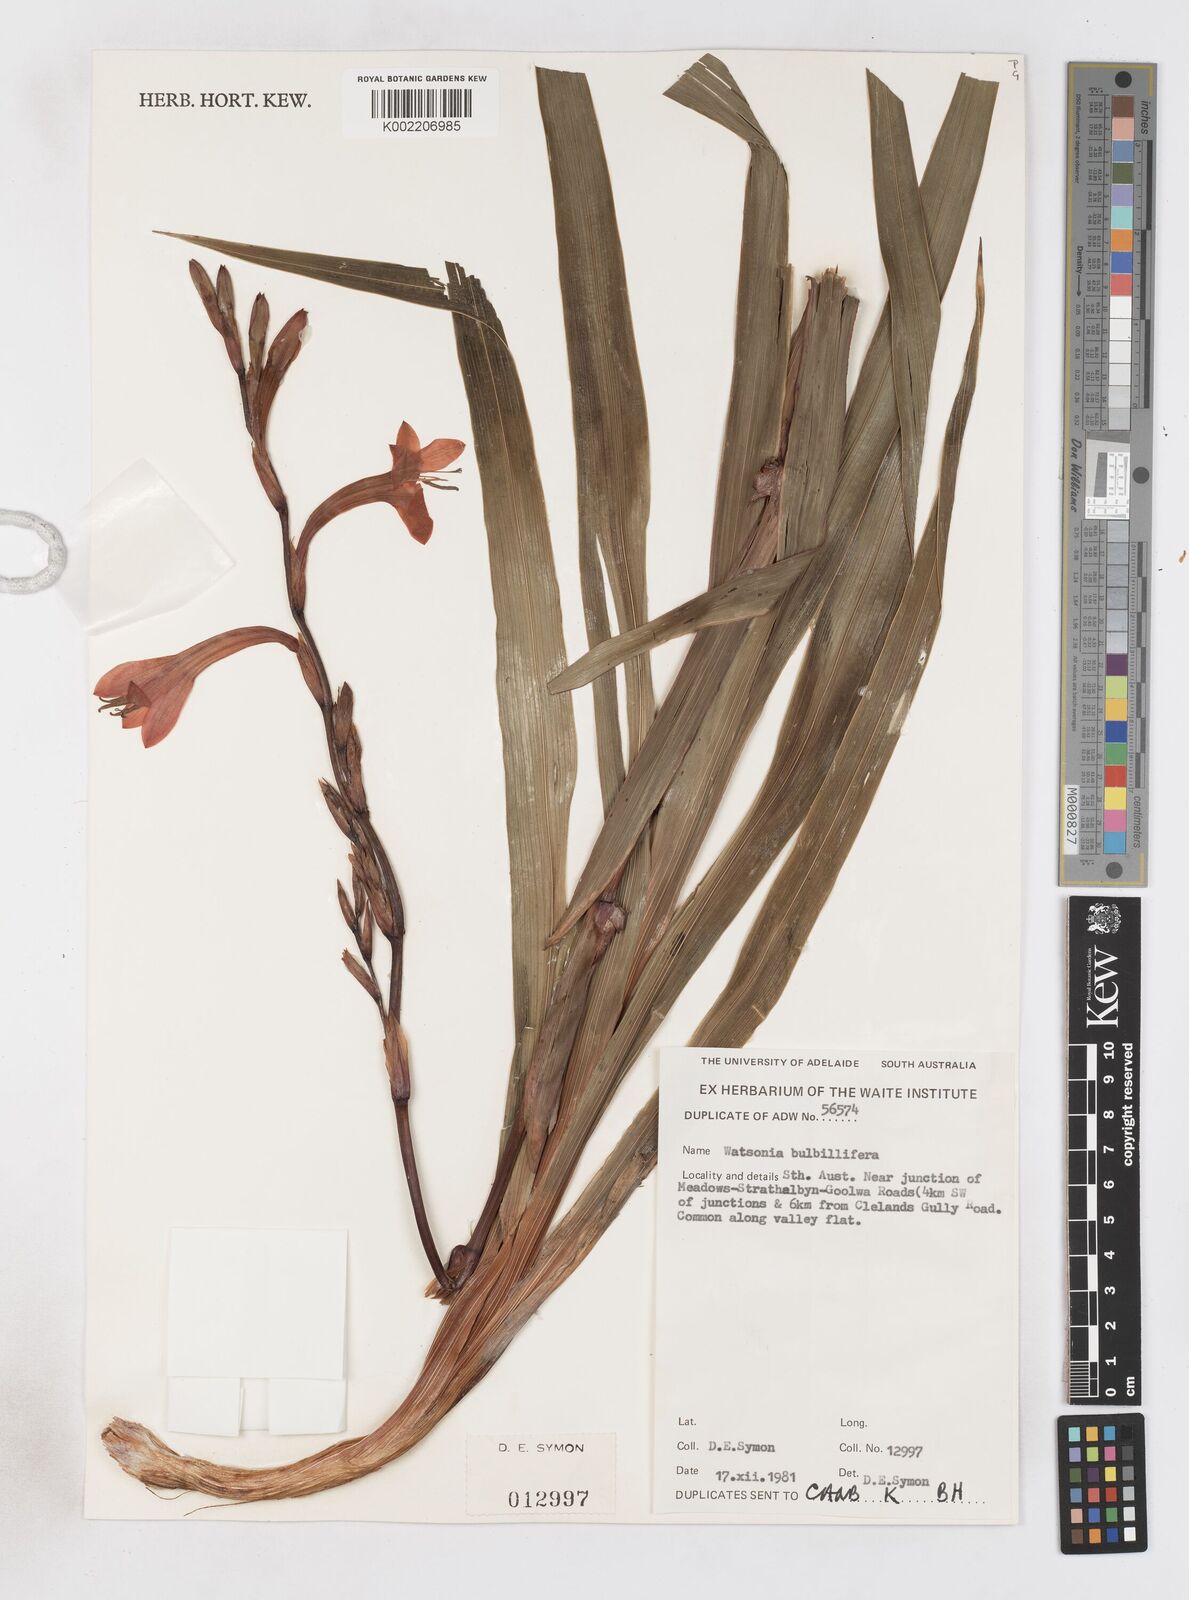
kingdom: Plantae
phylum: Tracheophyta
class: Liliopsida
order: Asparagales
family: Iridaceae
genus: Pillansia
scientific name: Pillansia
